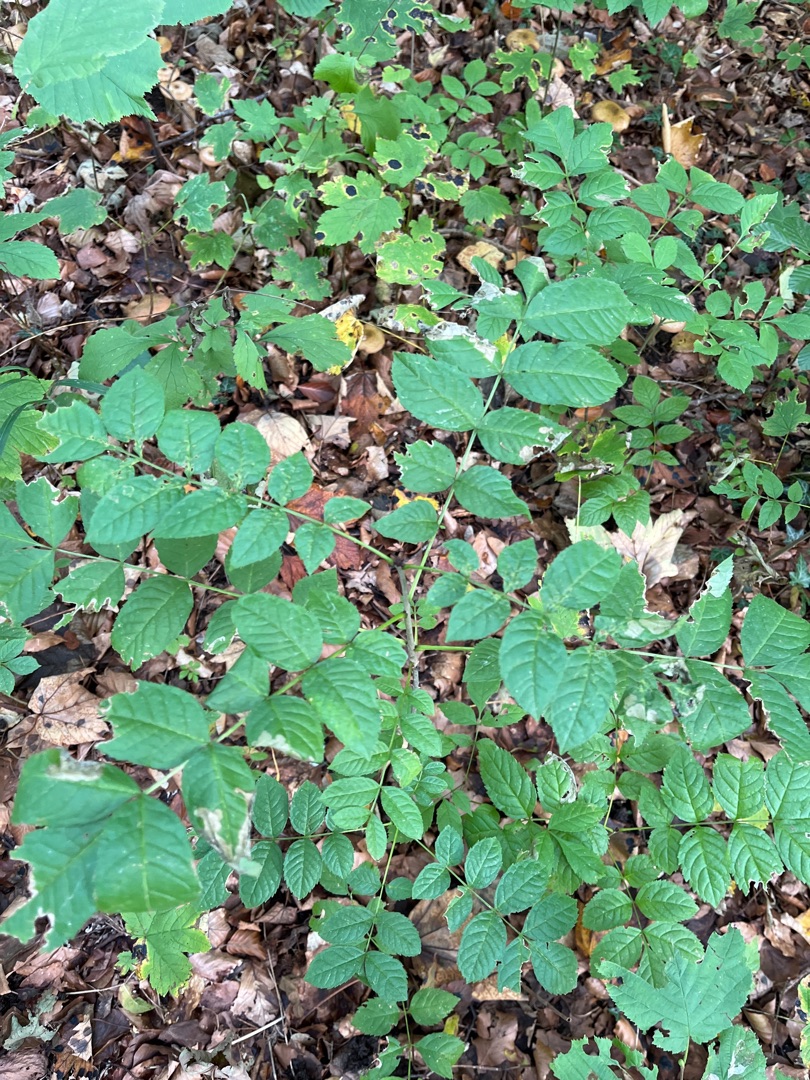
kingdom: Plantae
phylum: Tracheophyta
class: Magnoliopsida
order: Lamiales
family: Oleaceae
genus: Fraxinus
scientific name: Fraxinus excelsior
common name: Ask
